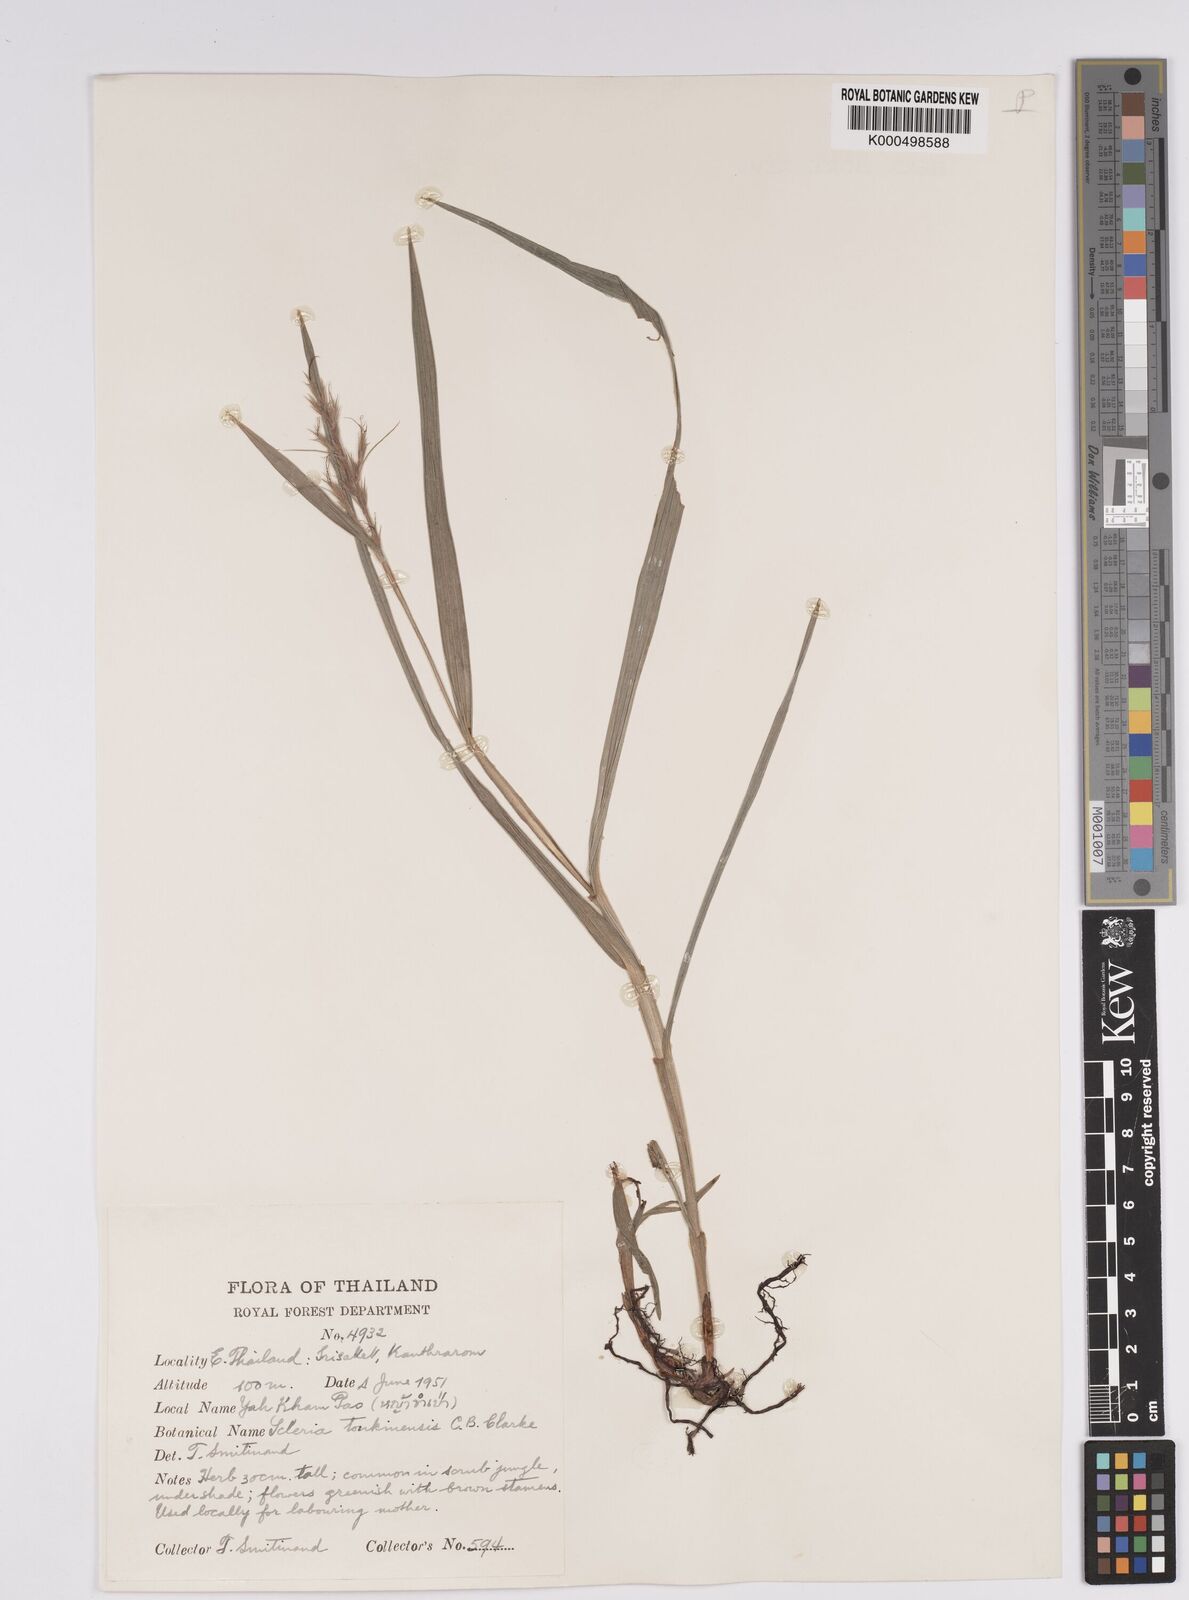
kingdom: Plantae
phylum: Tracheophyta
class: Liliopsida
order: Poales
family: Cyperaceae
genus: Scleria
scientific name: Scleria tonkinensis
